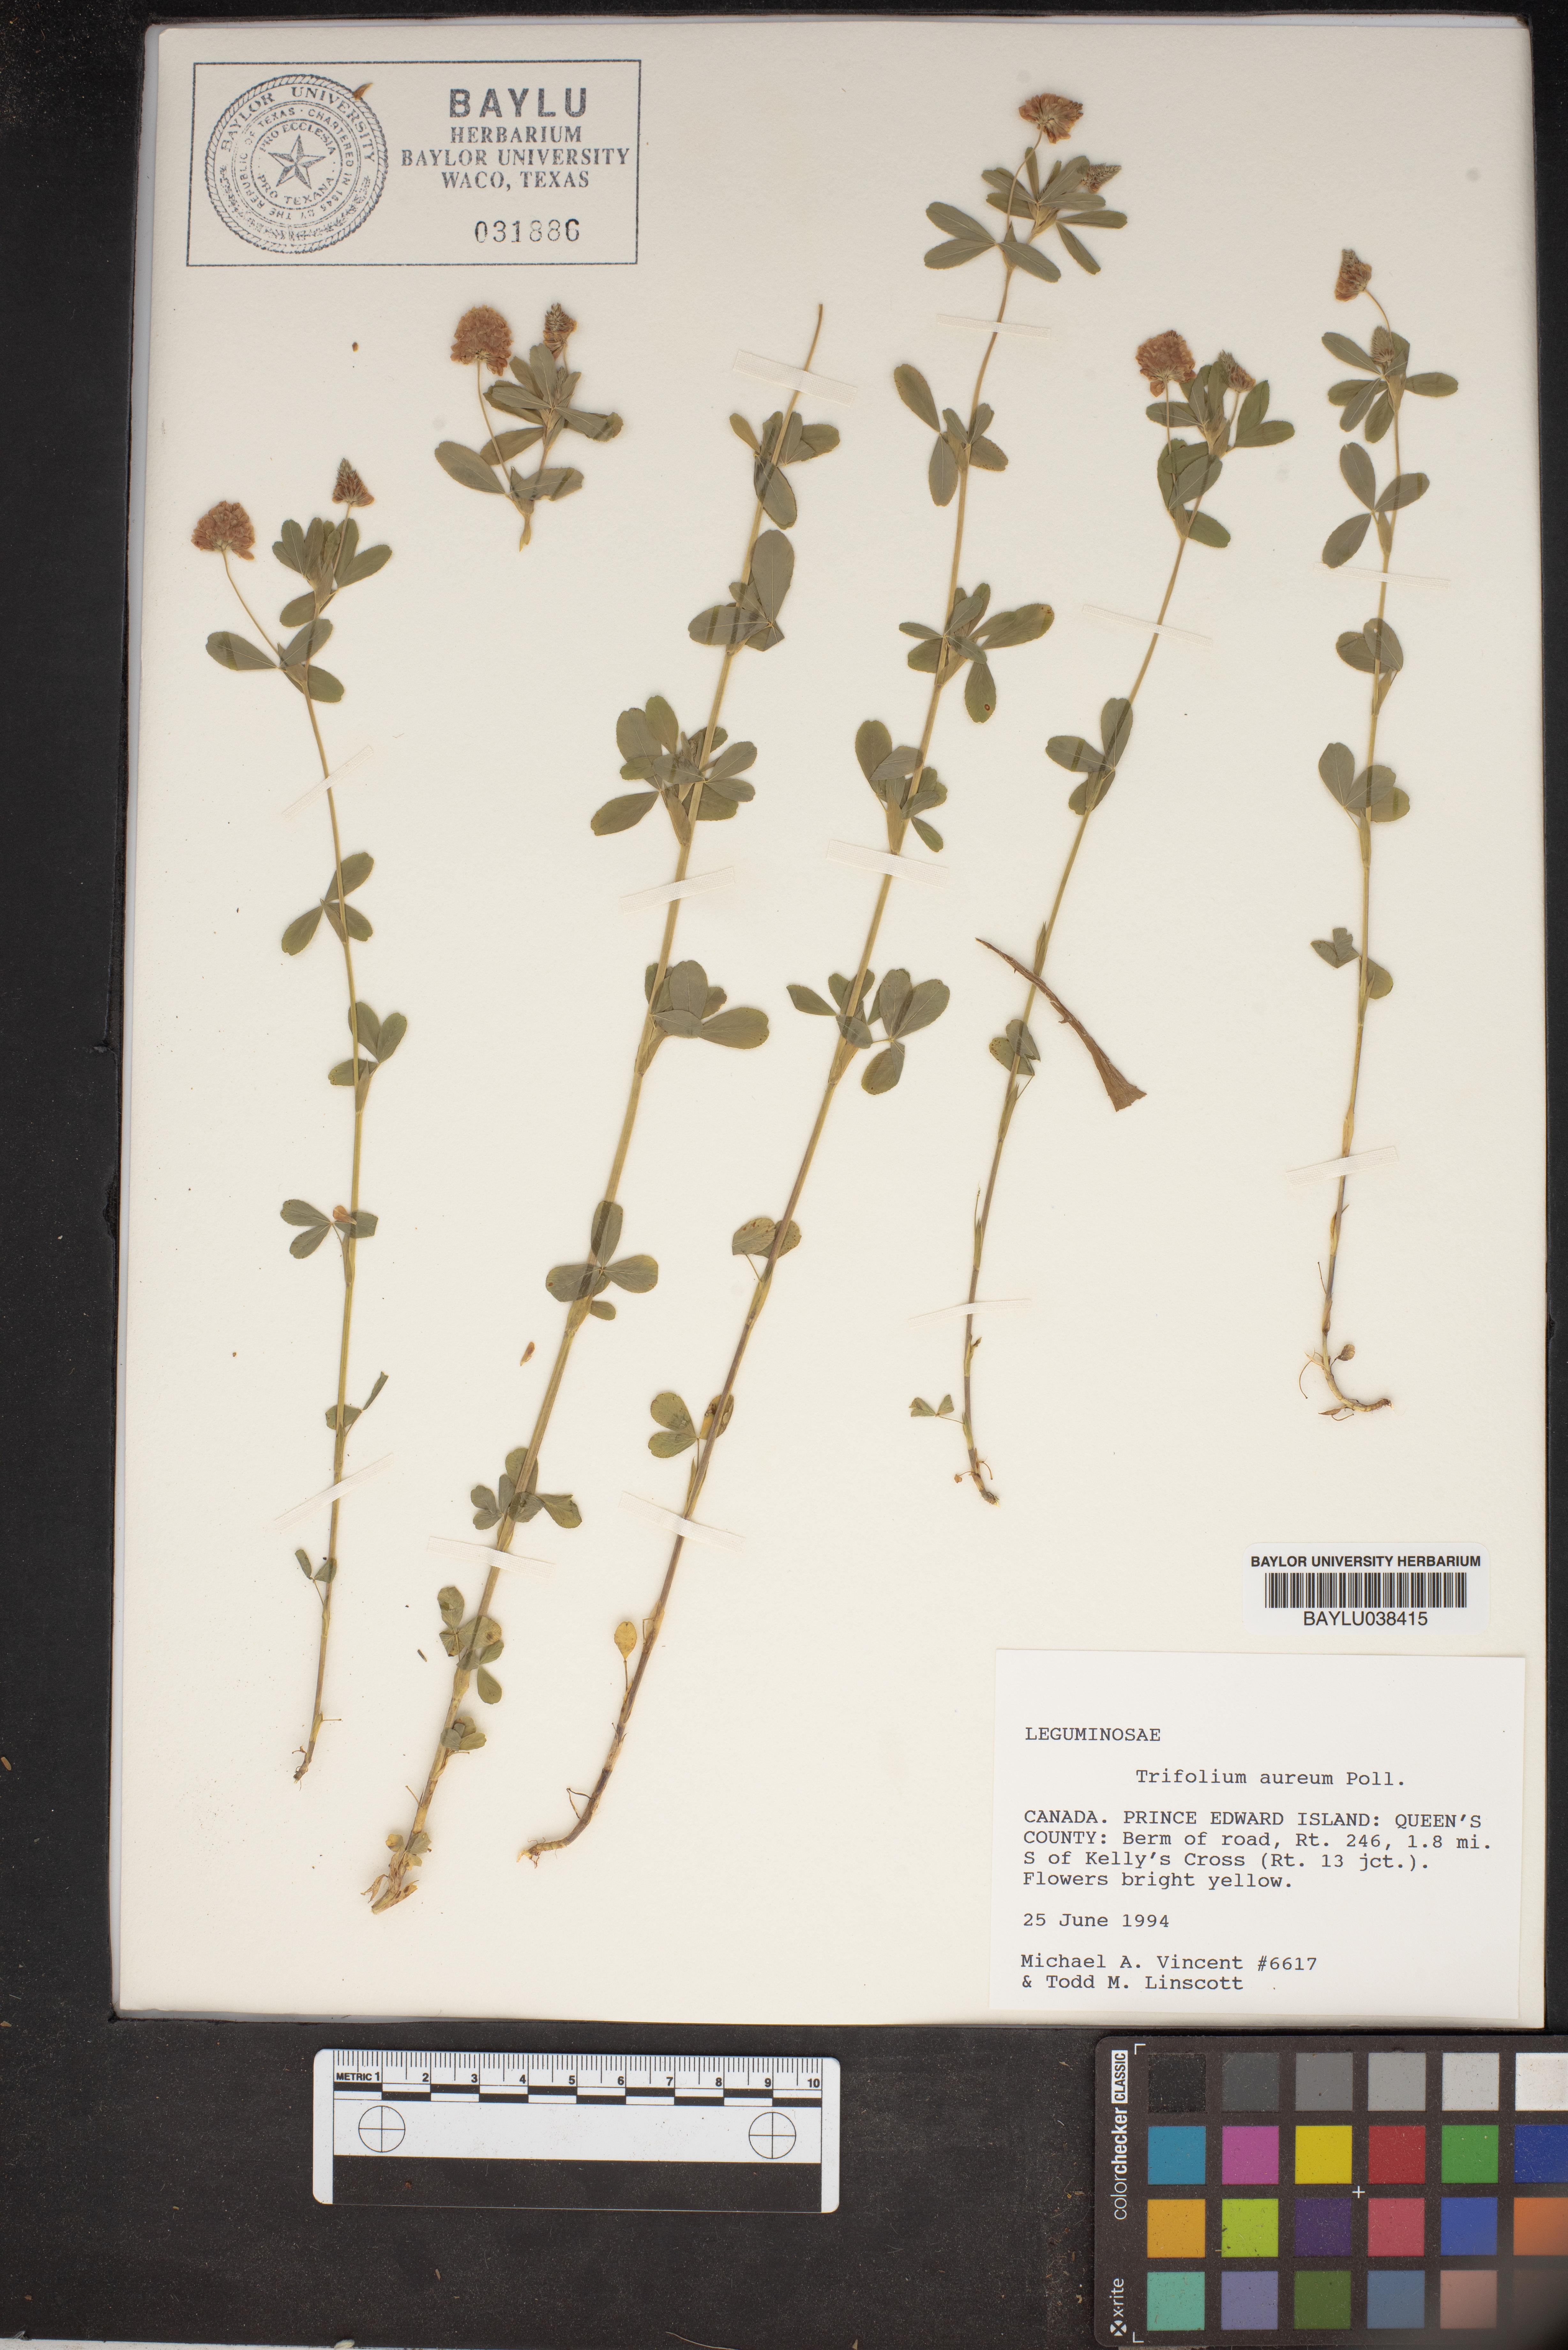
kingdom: Plantae
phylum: Tracheophyta
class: Magnoliopsida
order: Fabales
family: Fabaceae
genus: Trifolium
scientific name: Trifolium aureum
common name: Golden clover
